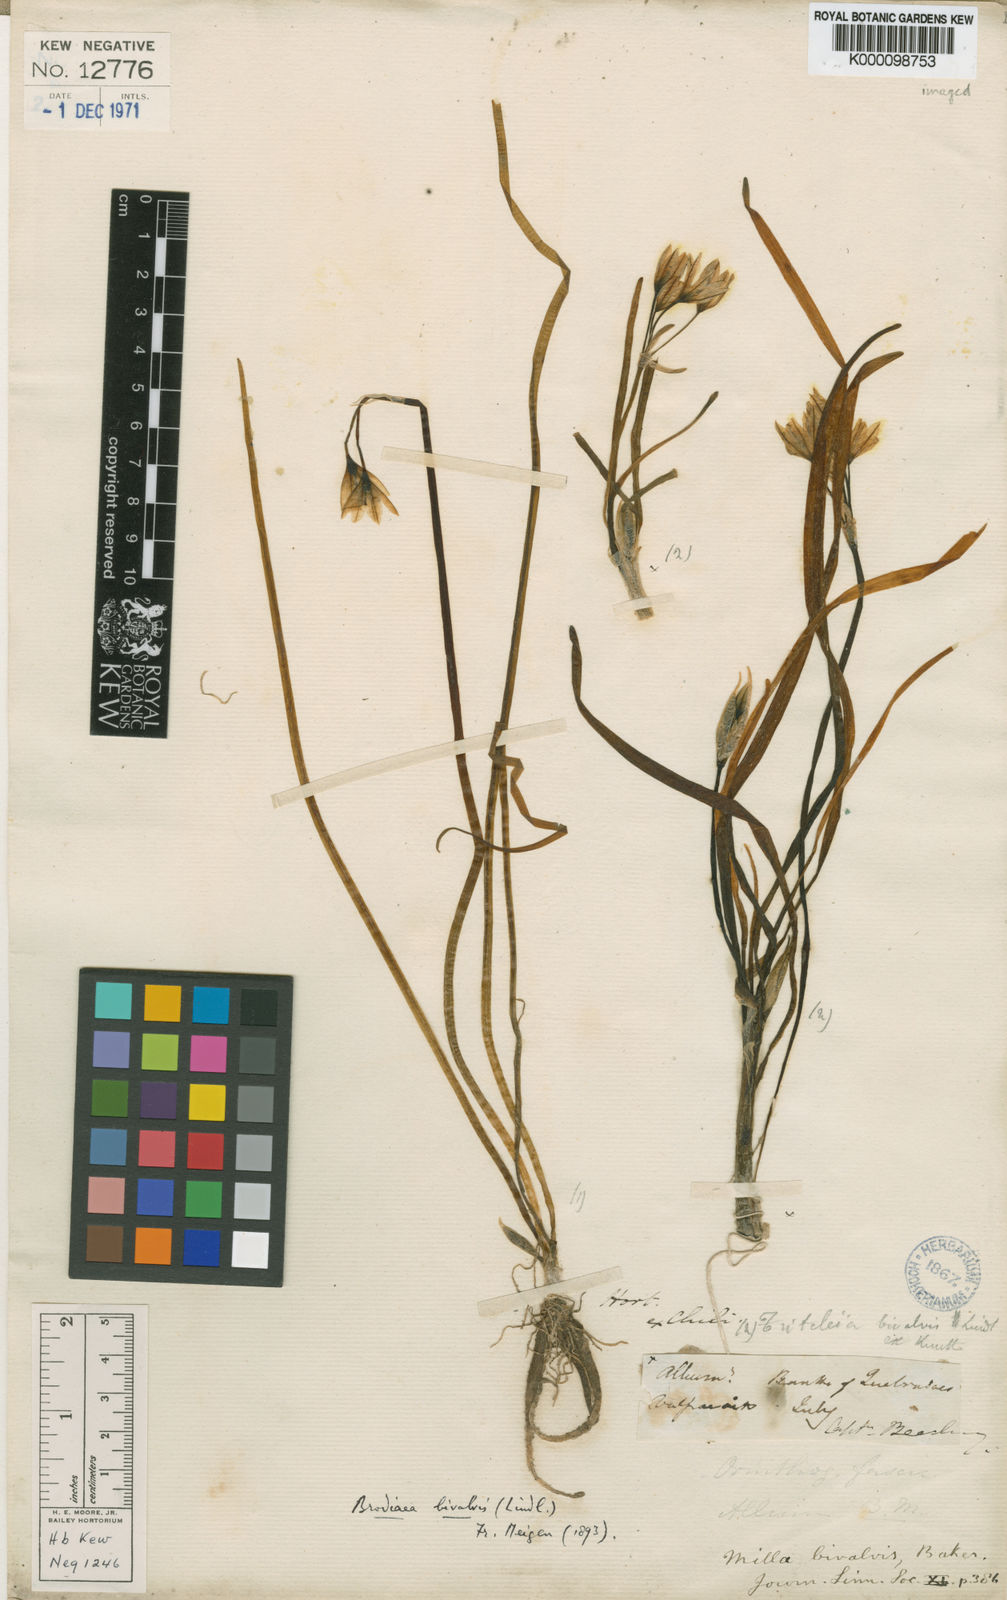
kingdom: Plantae
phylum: Tracheophyta
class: Liliopsida
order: Asparagales
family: Amaryllidaceae
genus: Tristagma
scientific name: Tristagma bivalve
